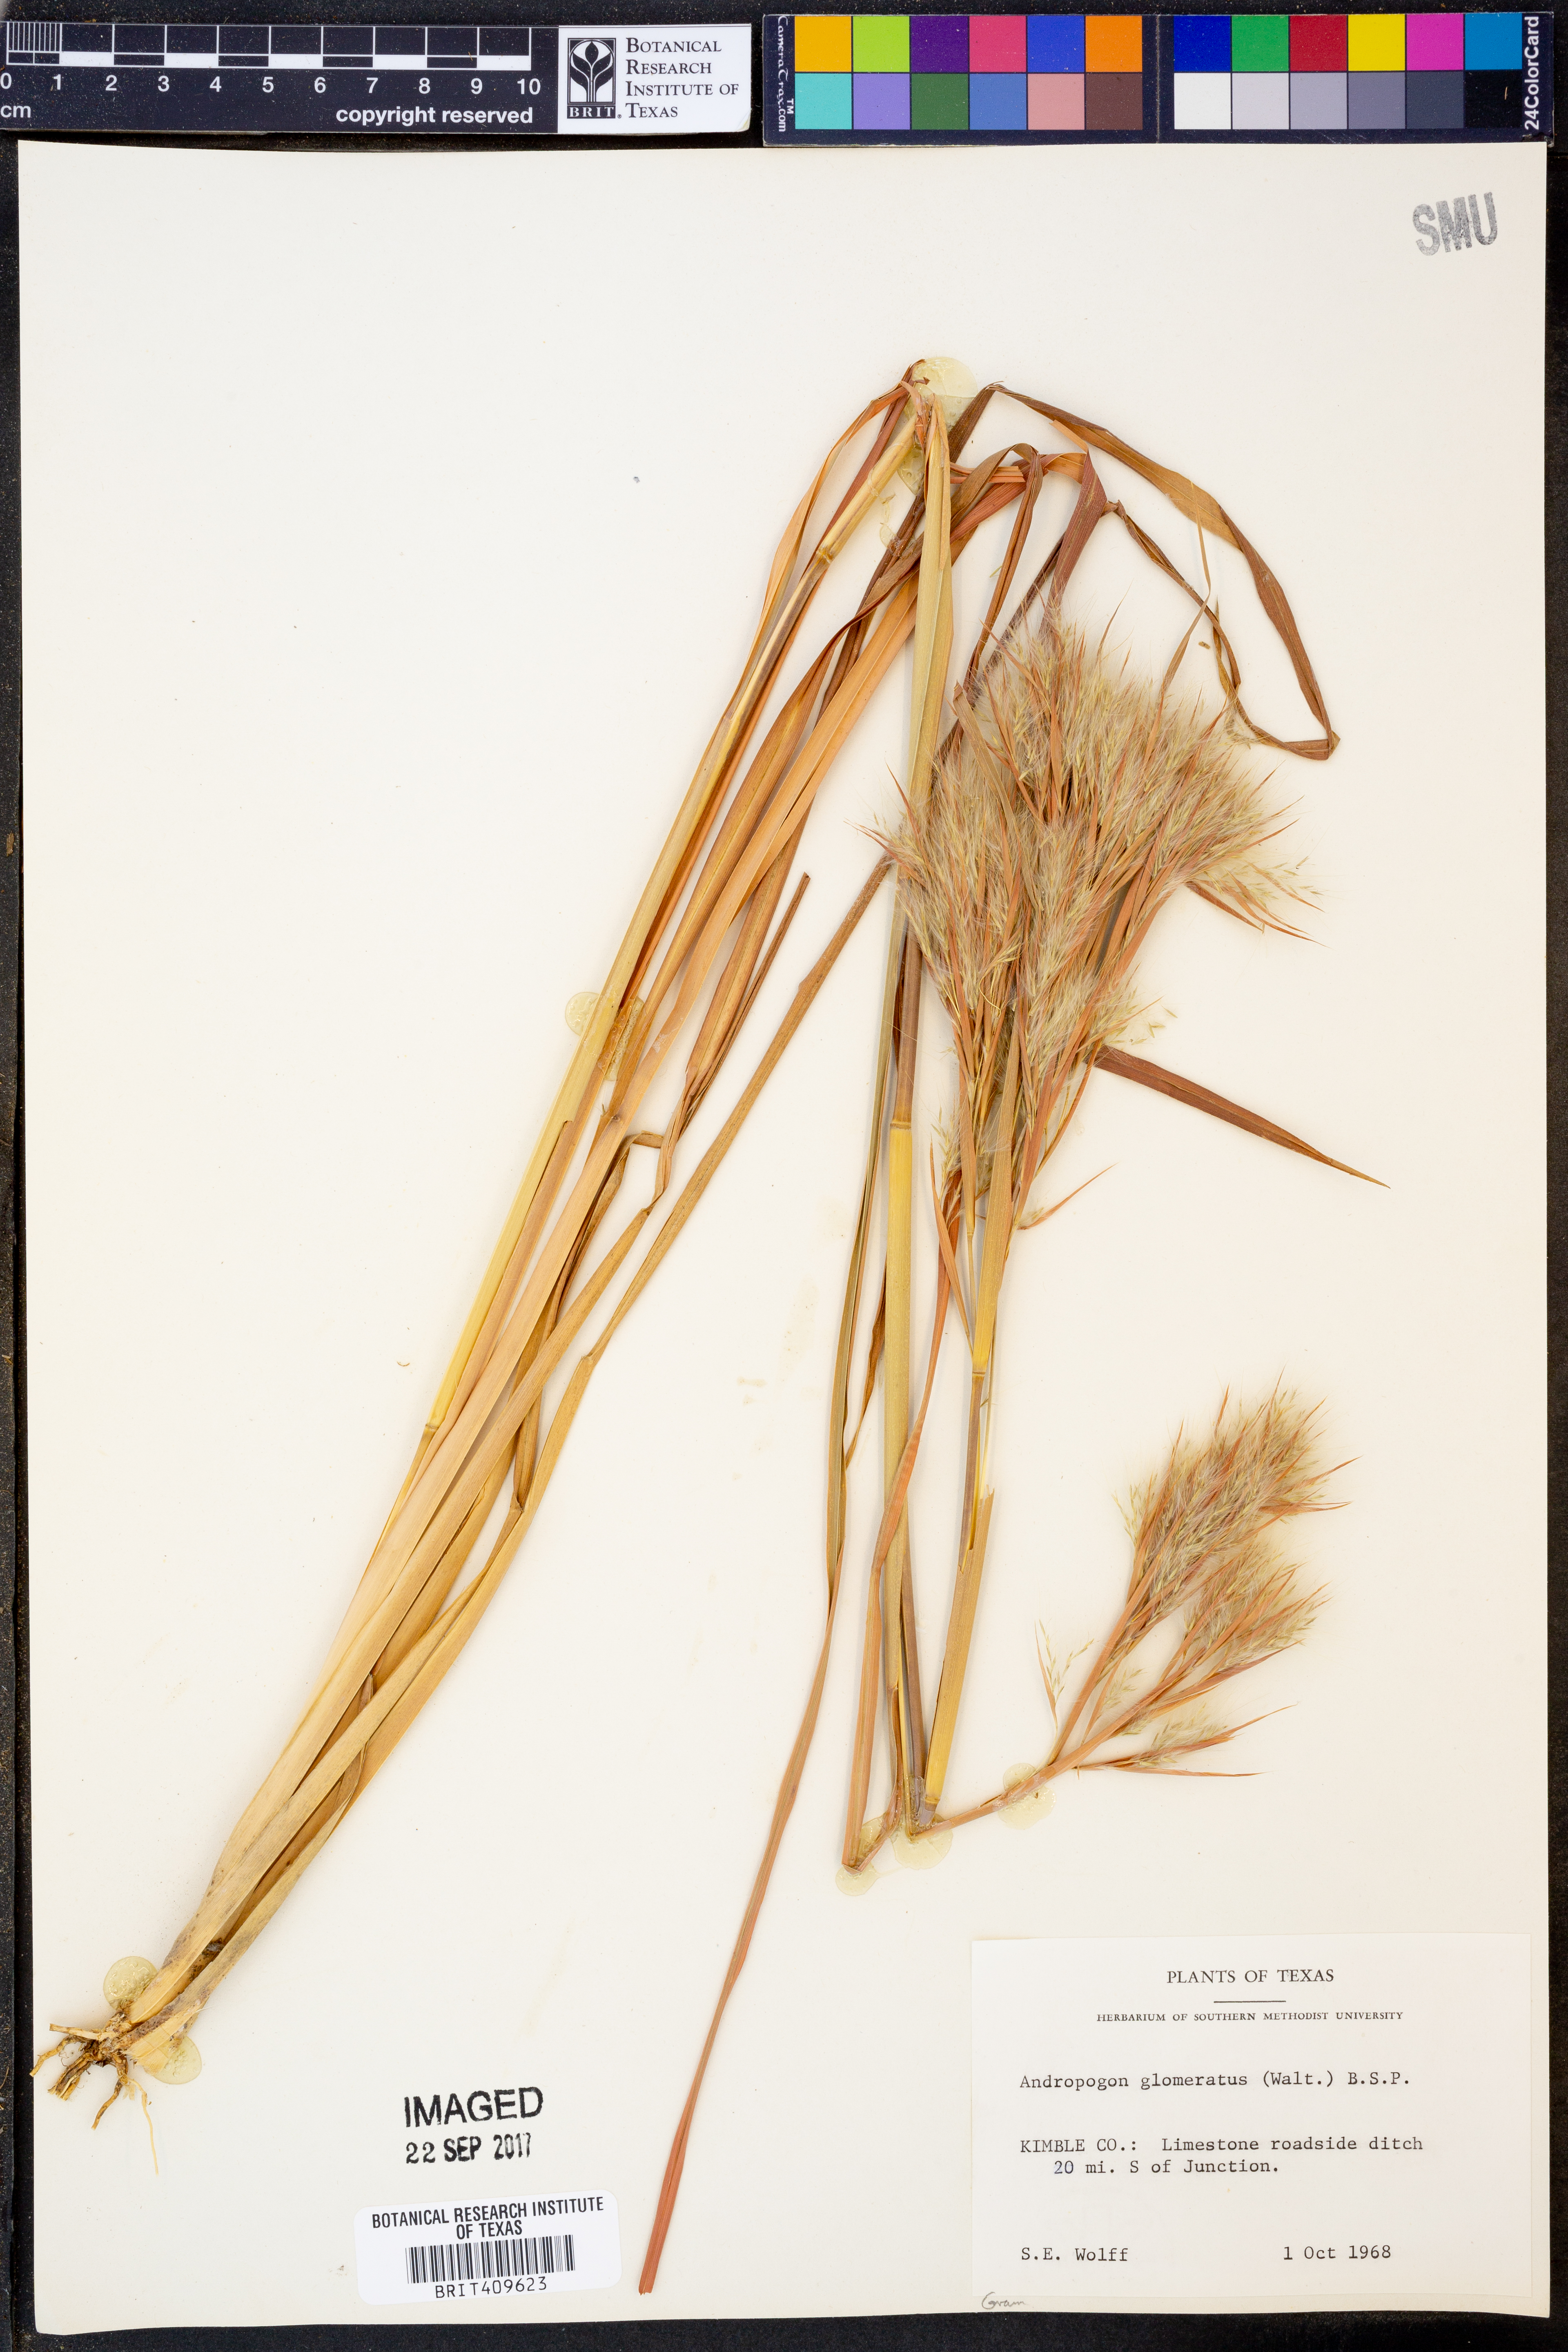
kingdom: Plantae
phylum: Tracheophyta
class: Liliopsida
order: Poales
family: Poaceae
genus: Andropogon
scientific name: Andropogon glomeratus
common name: Bushy beard grass
